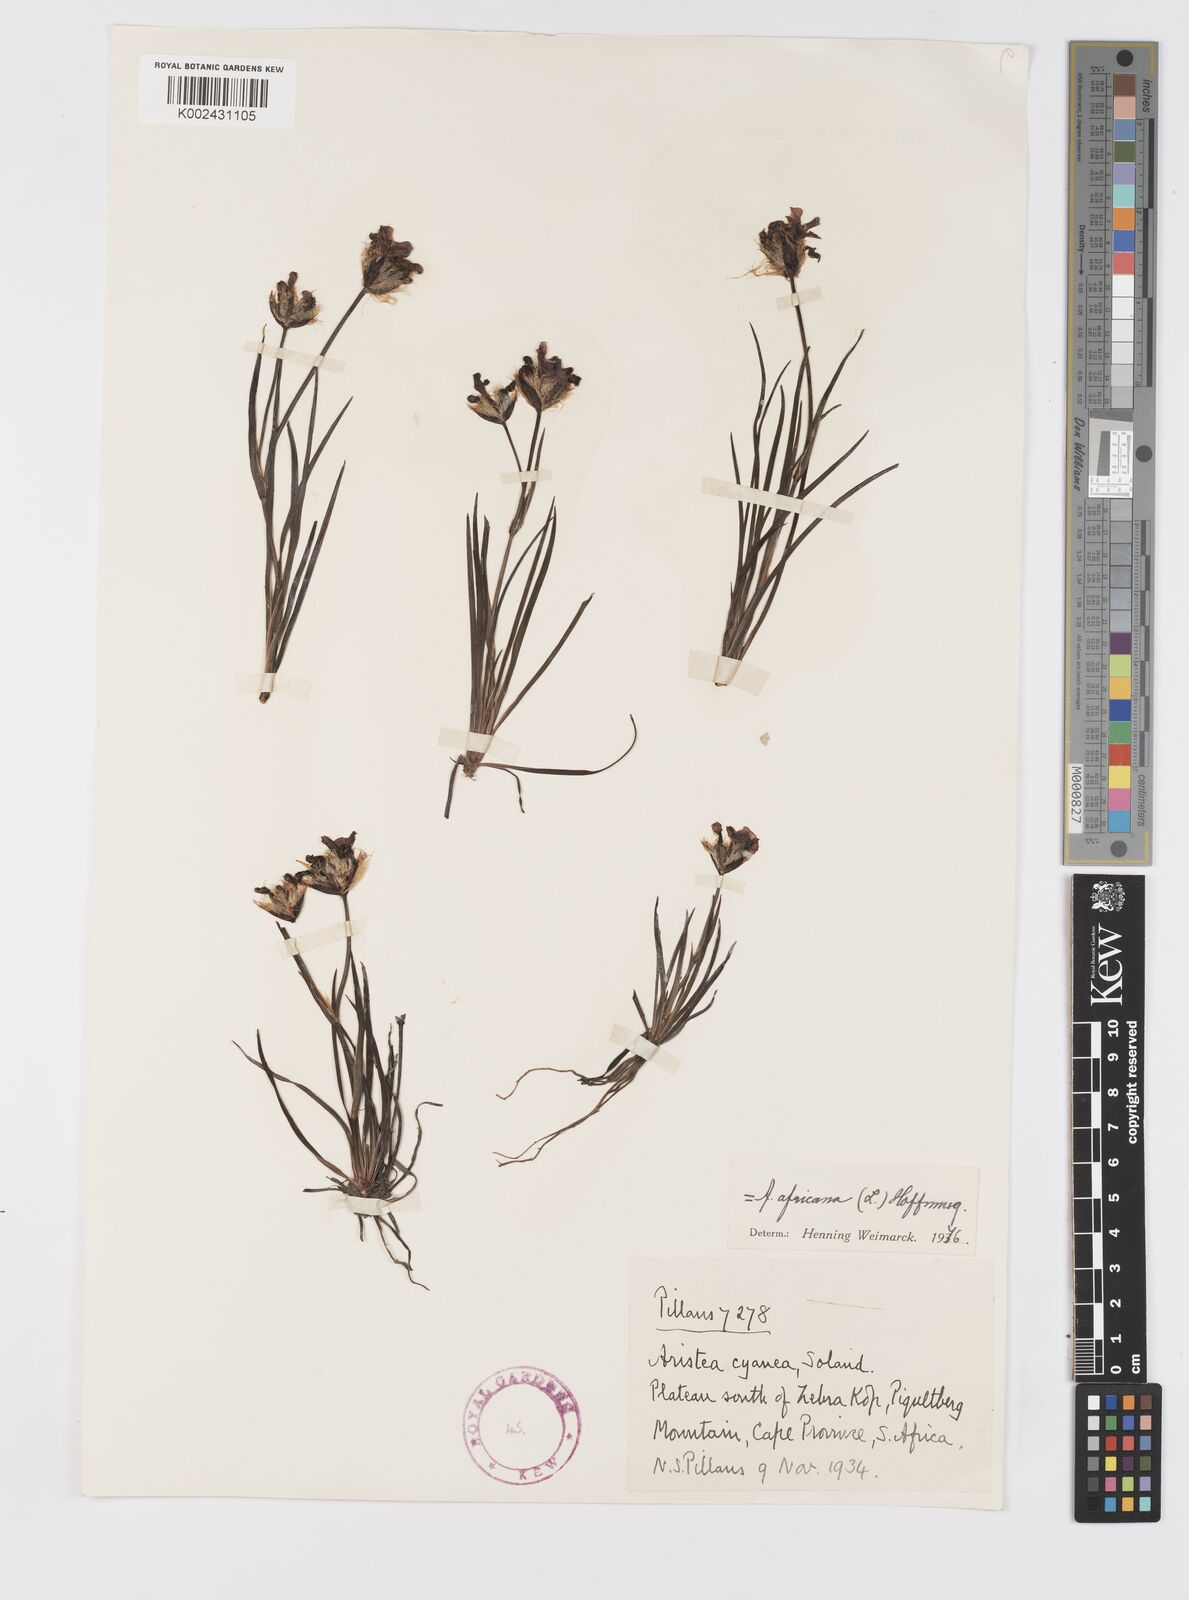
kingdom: Plantae
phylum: Tracheophyta
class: Liliopsida
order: Asparagales
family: Iridaceae
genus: Aristea
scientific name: Aristea africana
